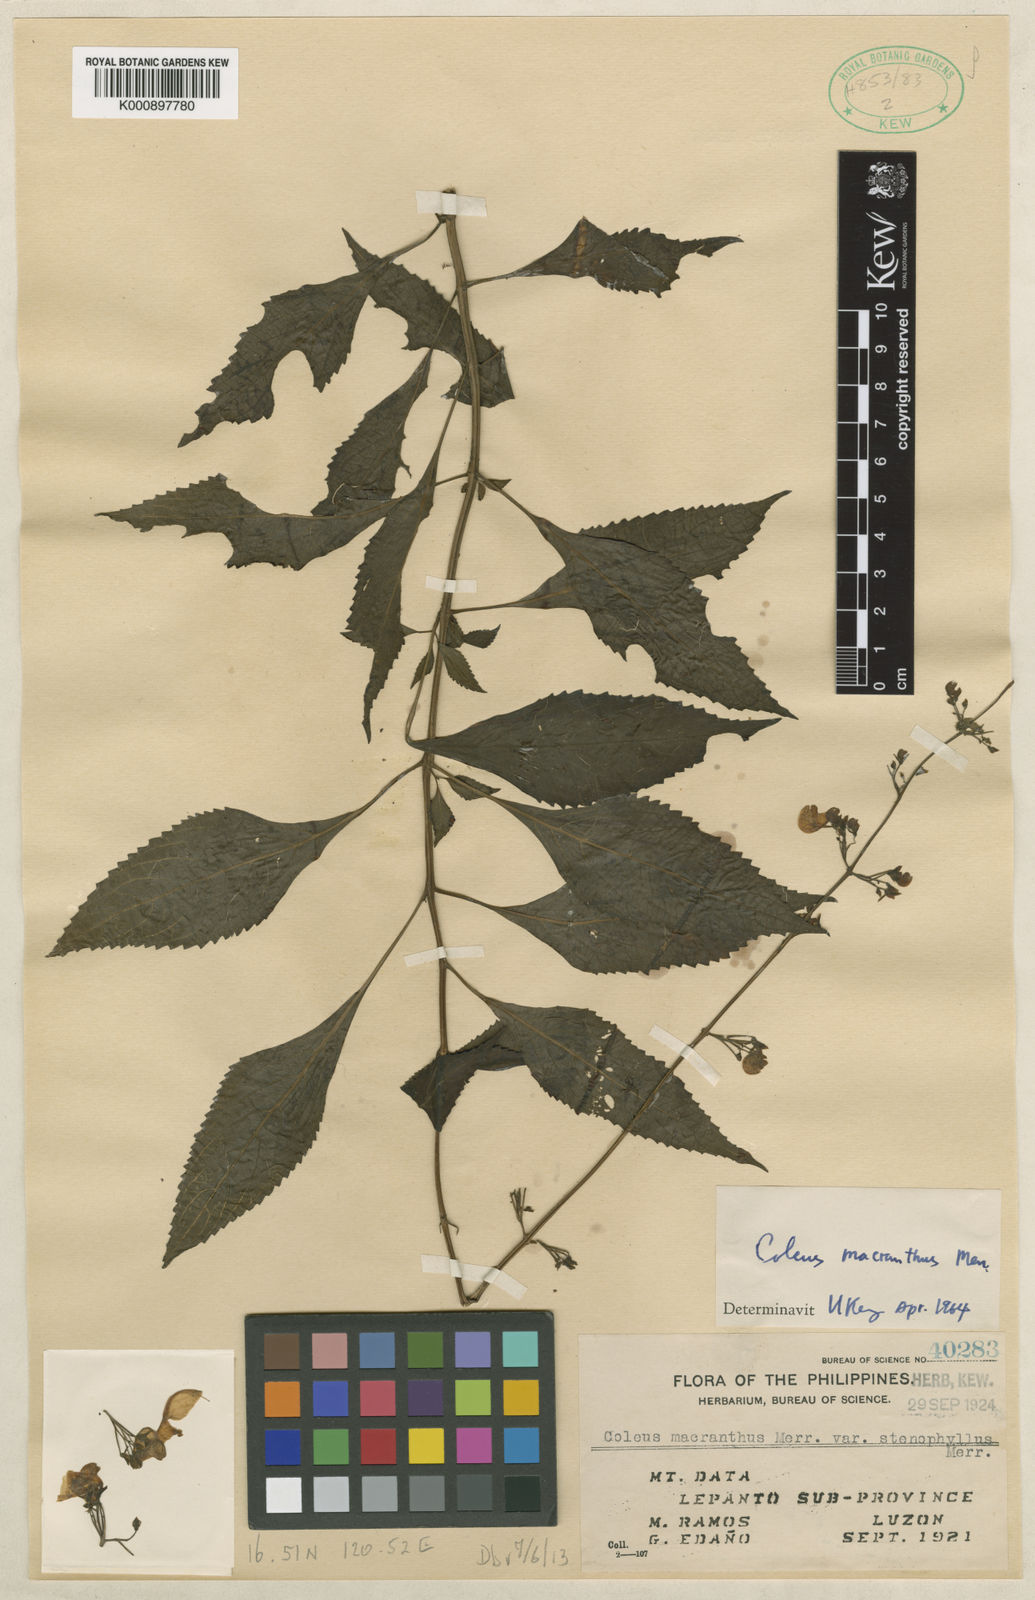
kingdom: Plantae
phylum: Tracheophyta
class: Magnoliopsida
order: Lamiales
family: Lamiaceae
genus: Coleus
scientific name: Coleus scutellarioides
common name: Coleus
